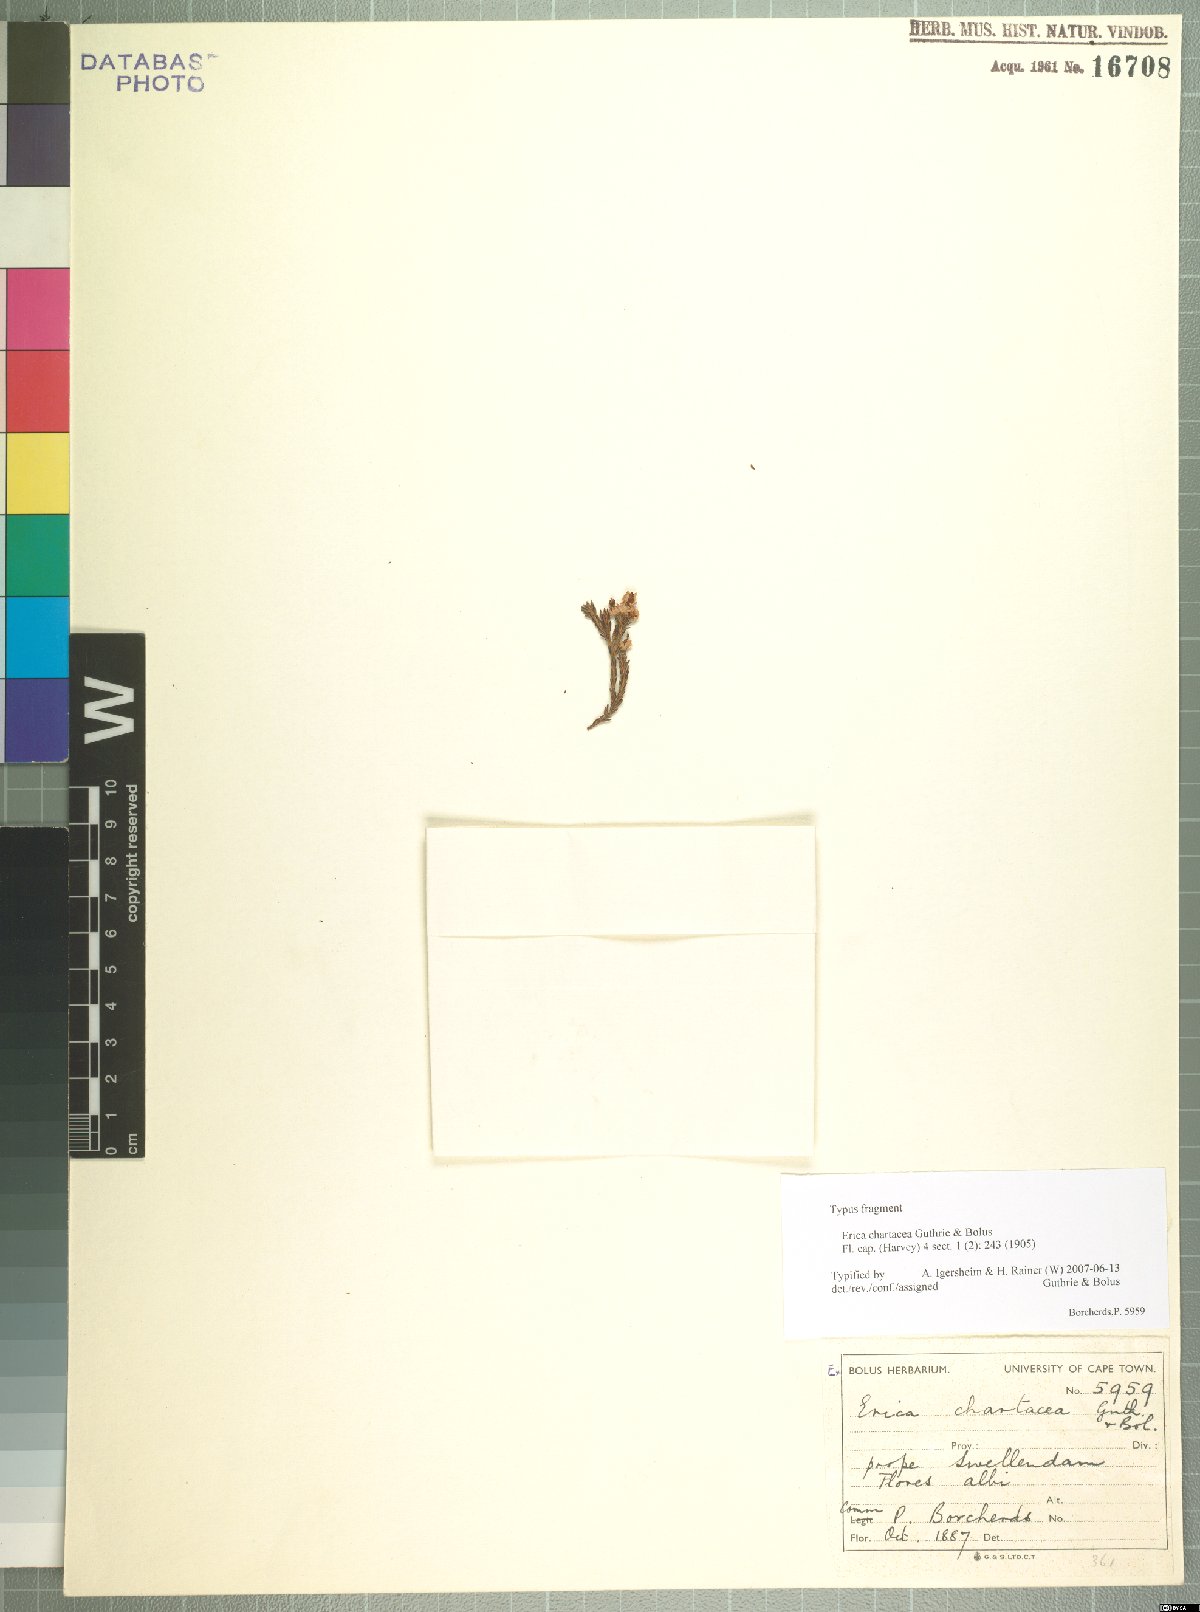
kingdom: Plantae
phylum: Tracheophyta
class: Magnoliopsida
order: Ericales
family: Ericaceae
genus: Erica
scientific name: Erica chartacea
